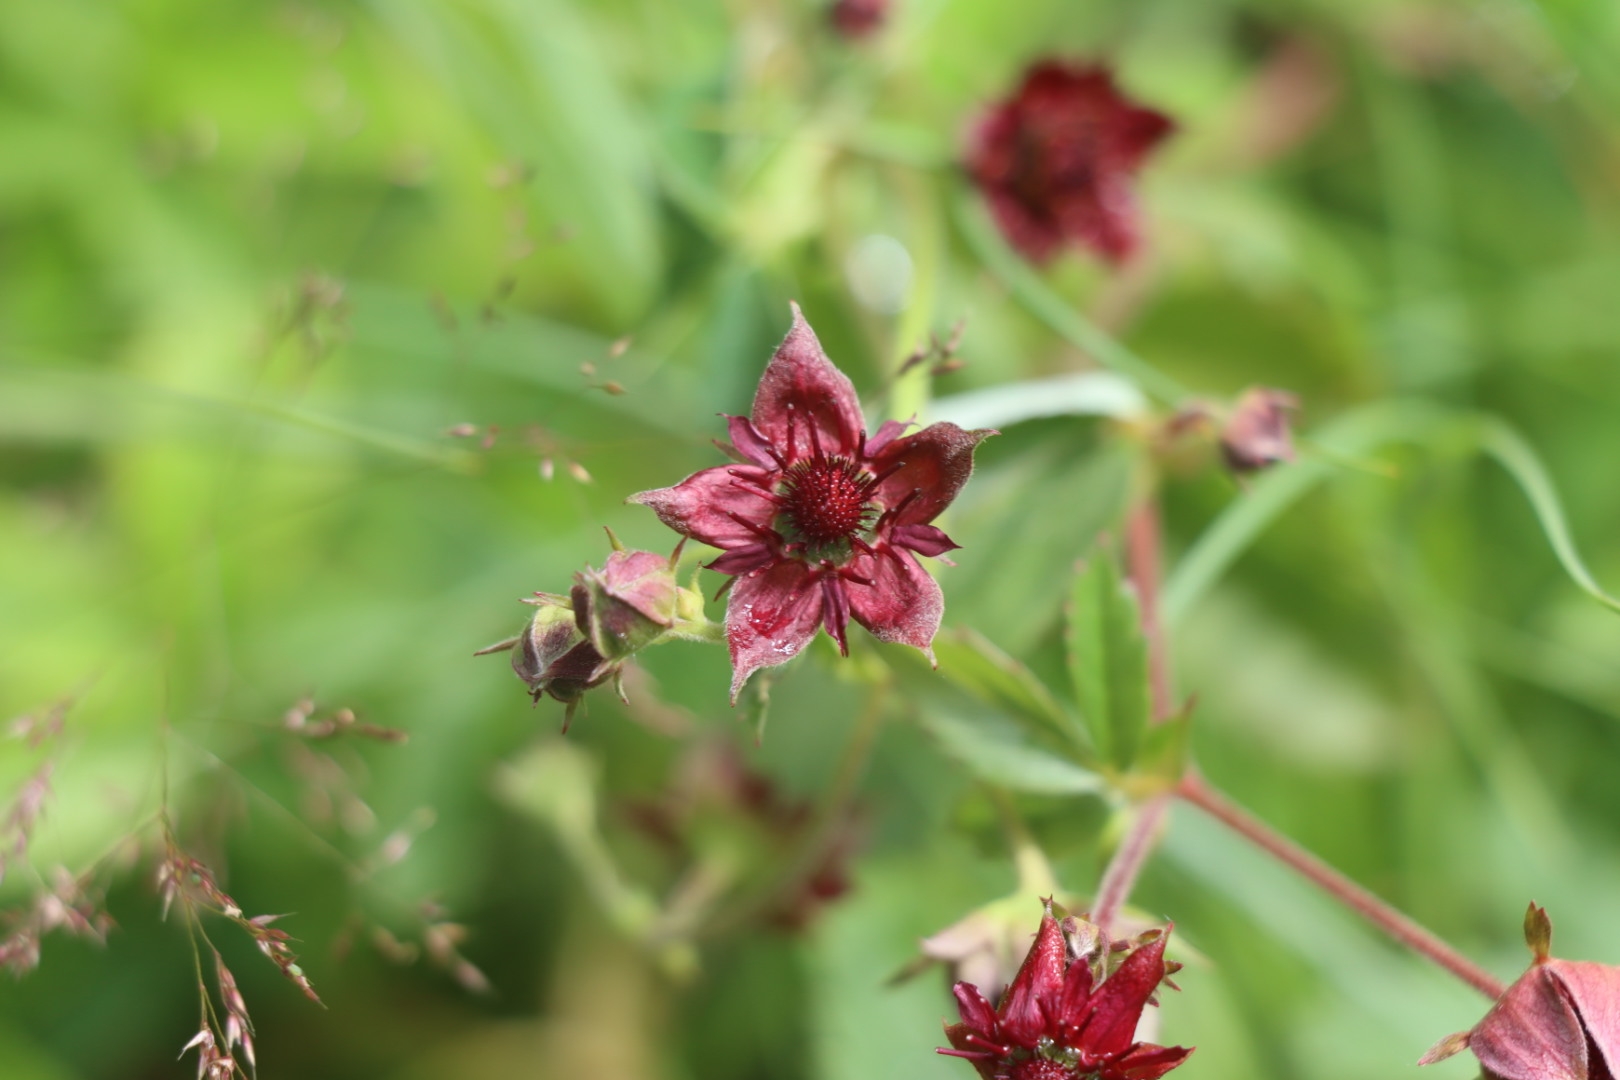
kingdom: Plantae
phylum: Tracheophyta
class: Magnoliopsida
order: Rosales
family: Rosaceae
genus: Comarum
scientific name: Comarum palustre
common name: Kragefod
